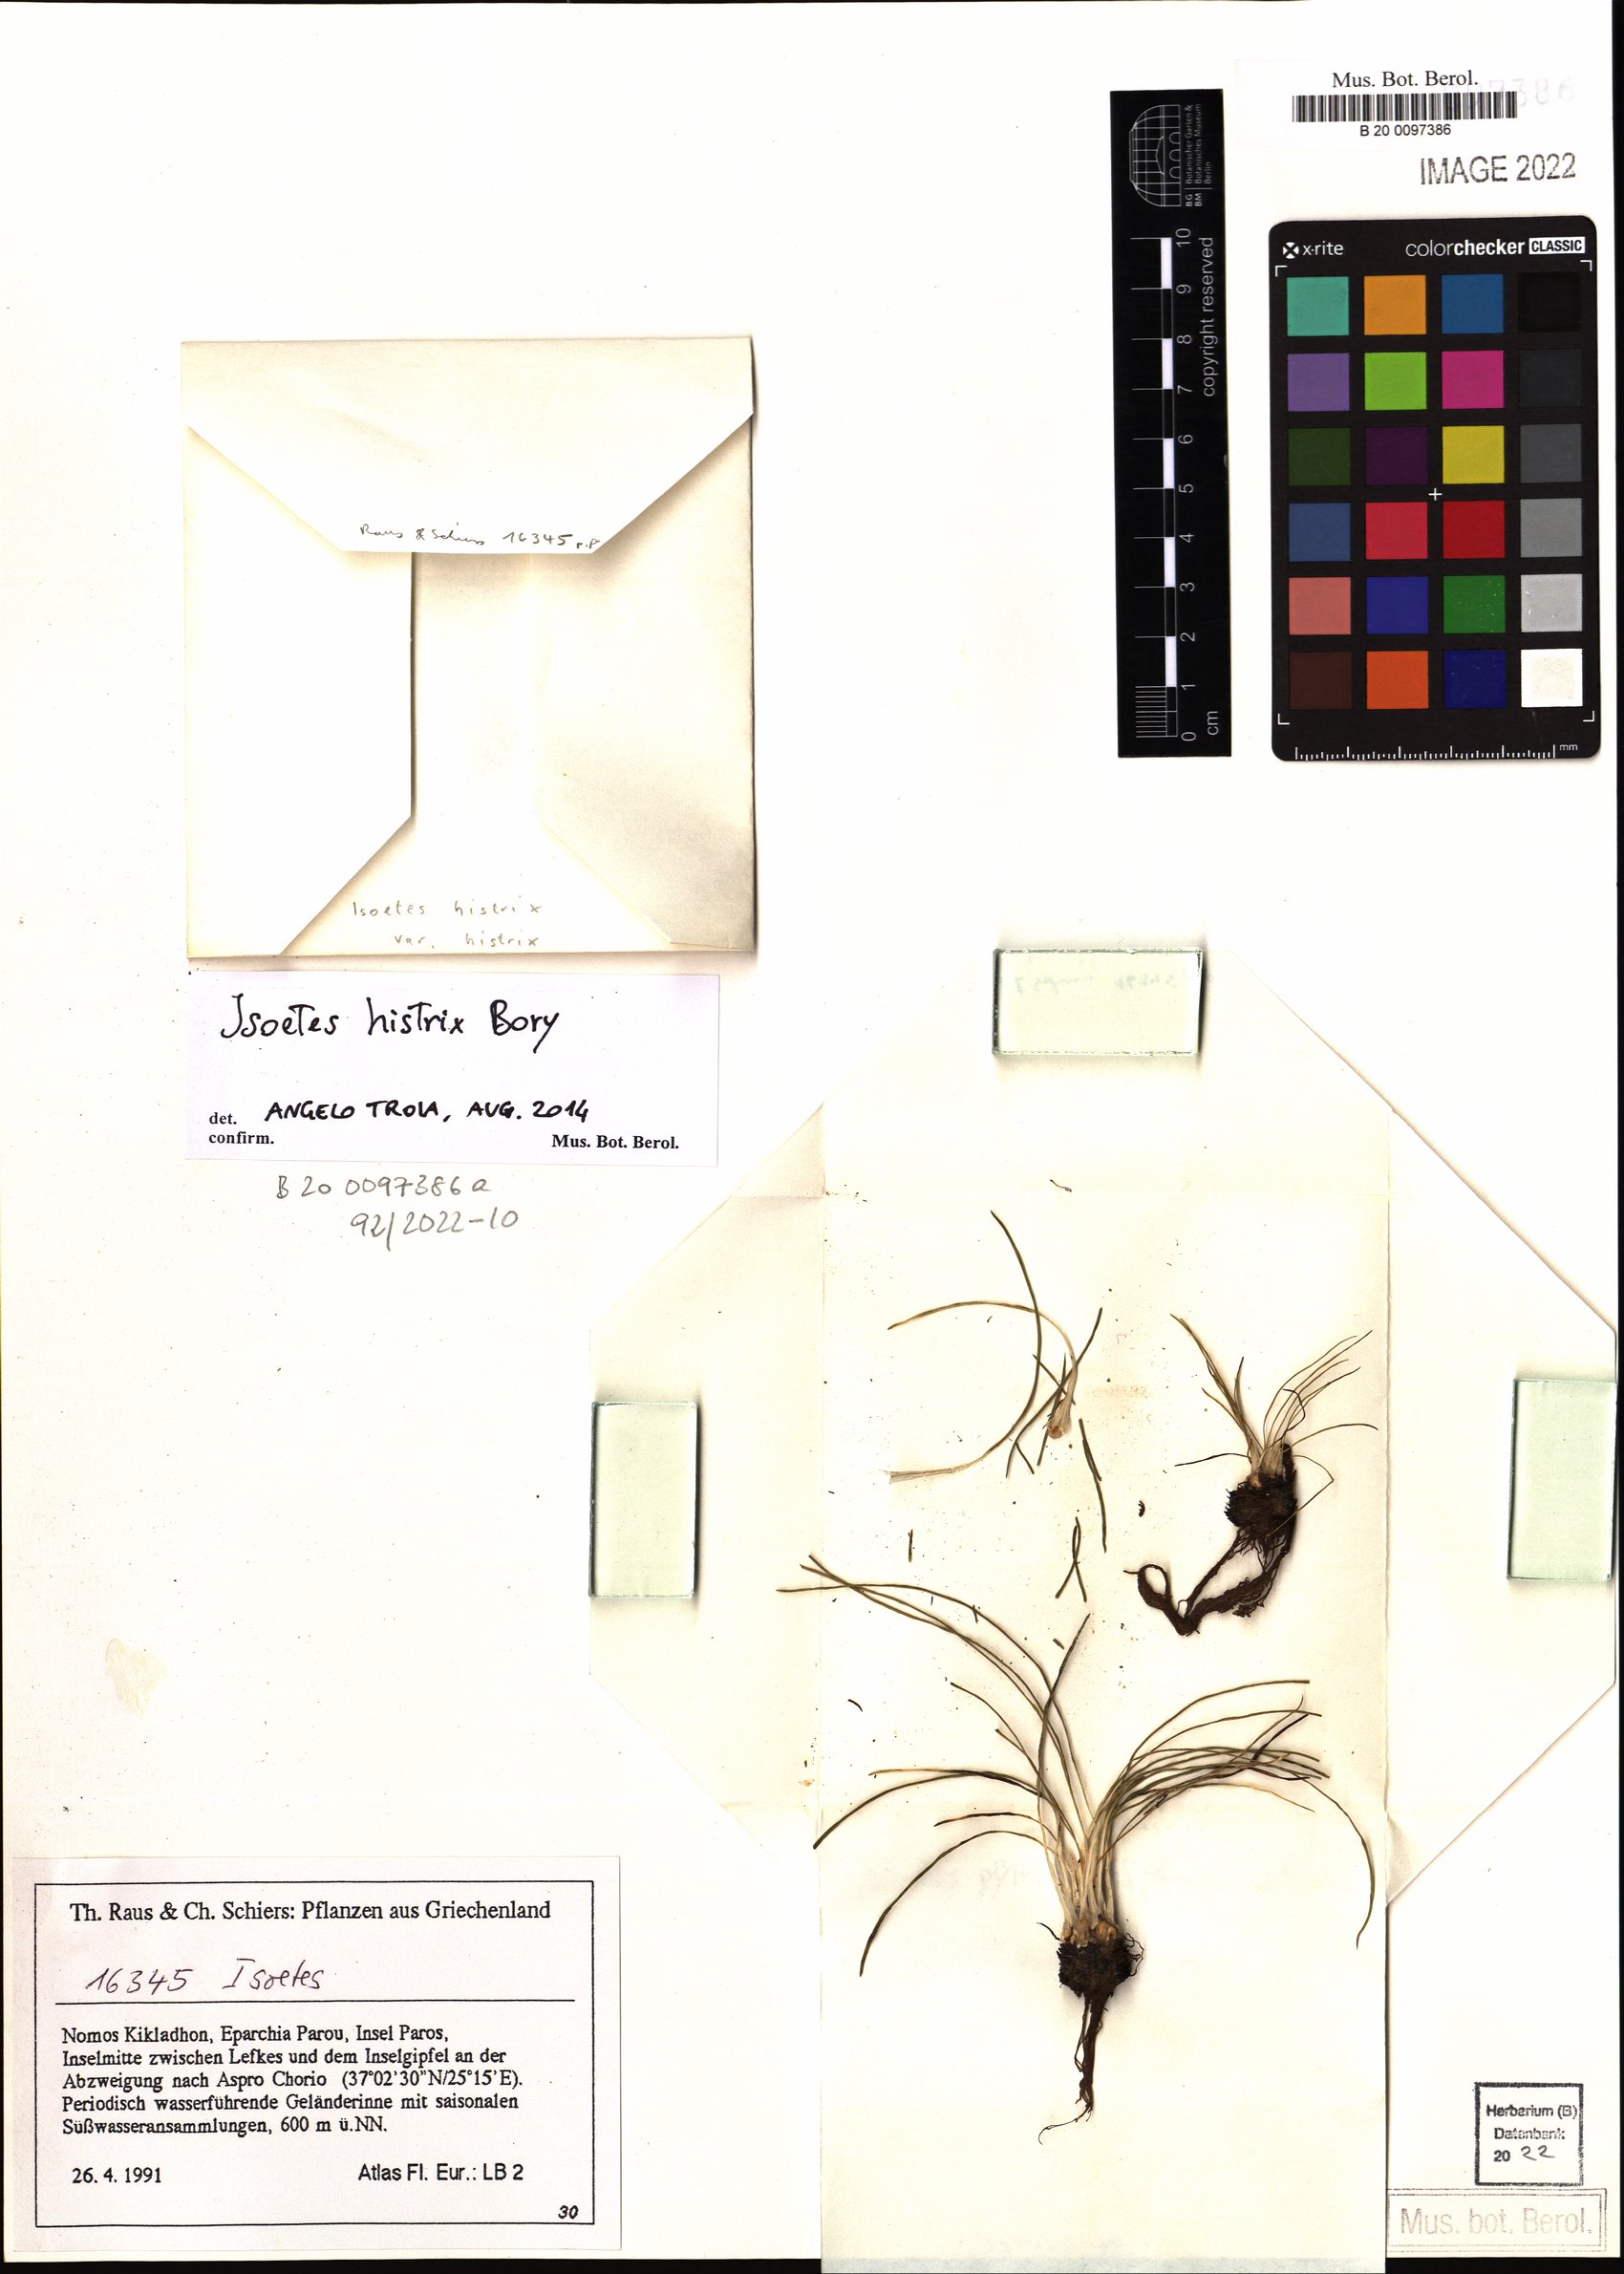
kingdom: Plantae
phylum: Tracheophyta
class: Lycopodiopsida
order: Isoetales
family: Isoetaceae
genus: Isoetes
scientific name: Isoetes gymnocarpa
